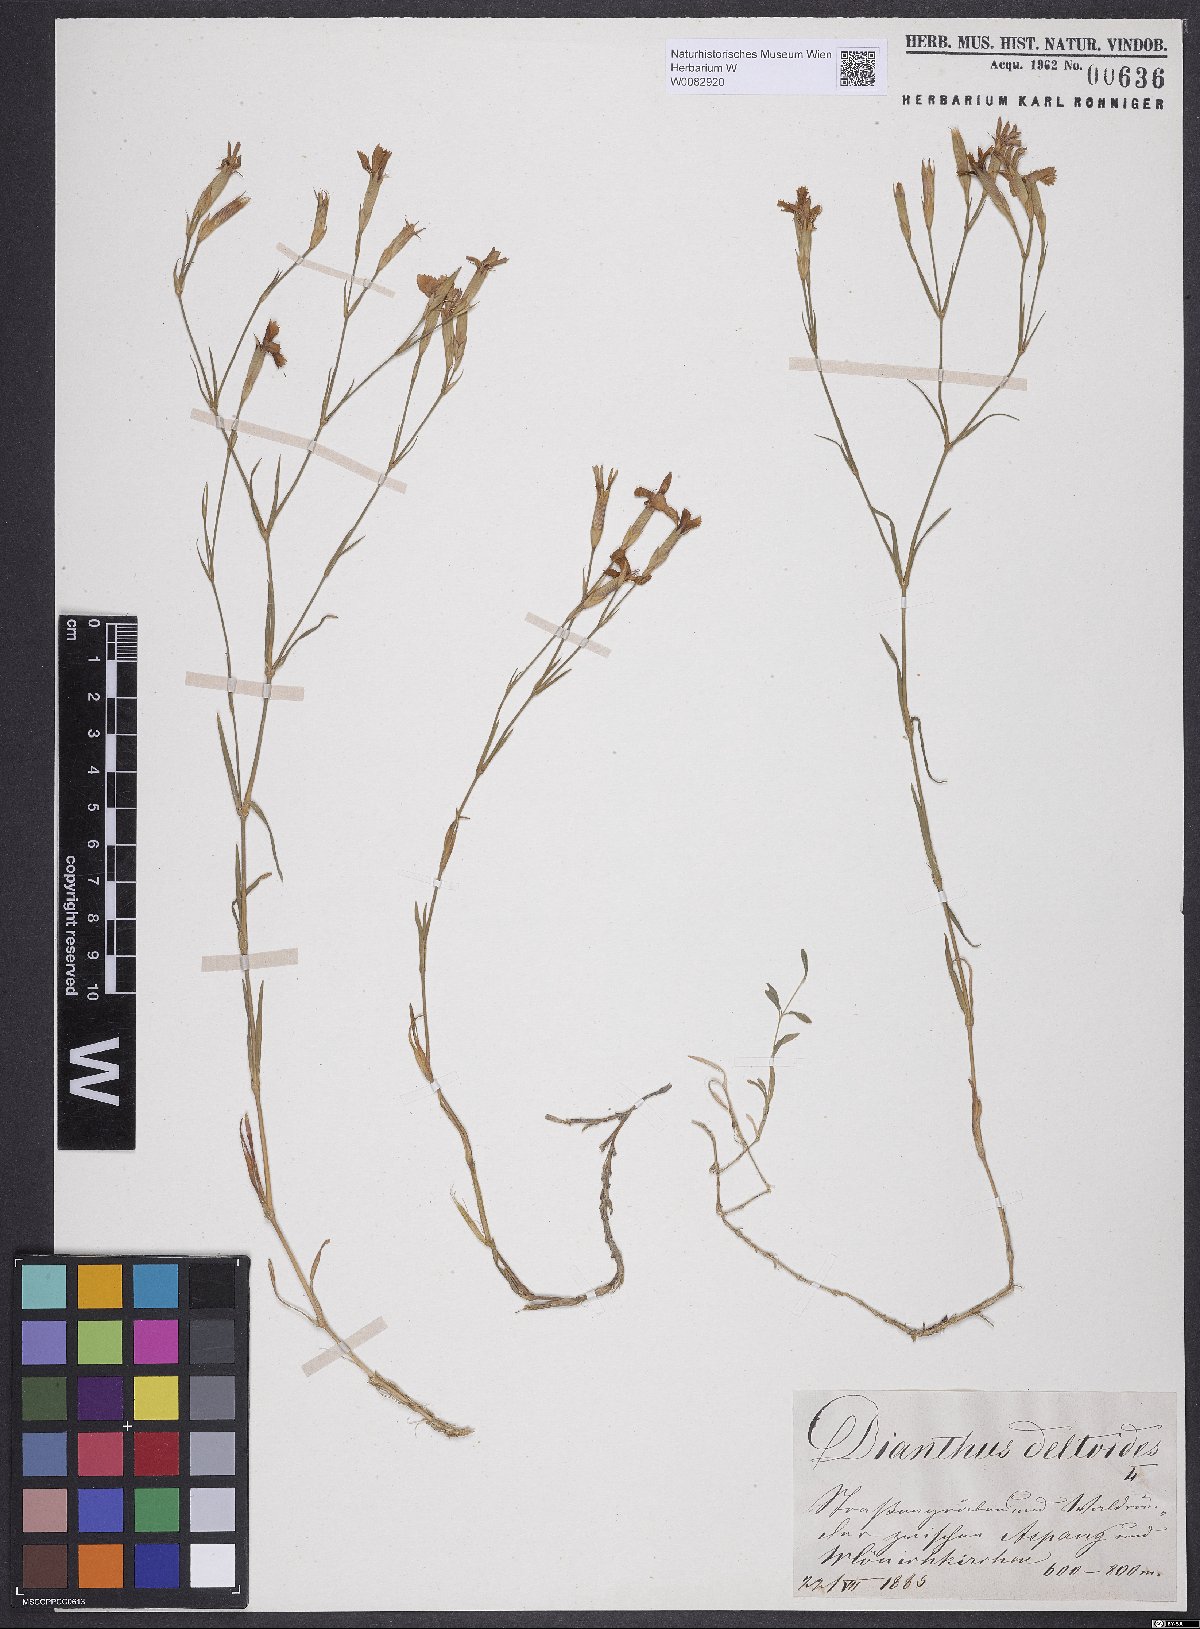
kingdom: Plantae
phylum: Tracheophyta
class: Magnoliopsida
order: Caryophyllales
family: Caryophyllaceae
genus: Dianthus
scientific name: Dianthus deltoides
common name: Maiden pink
